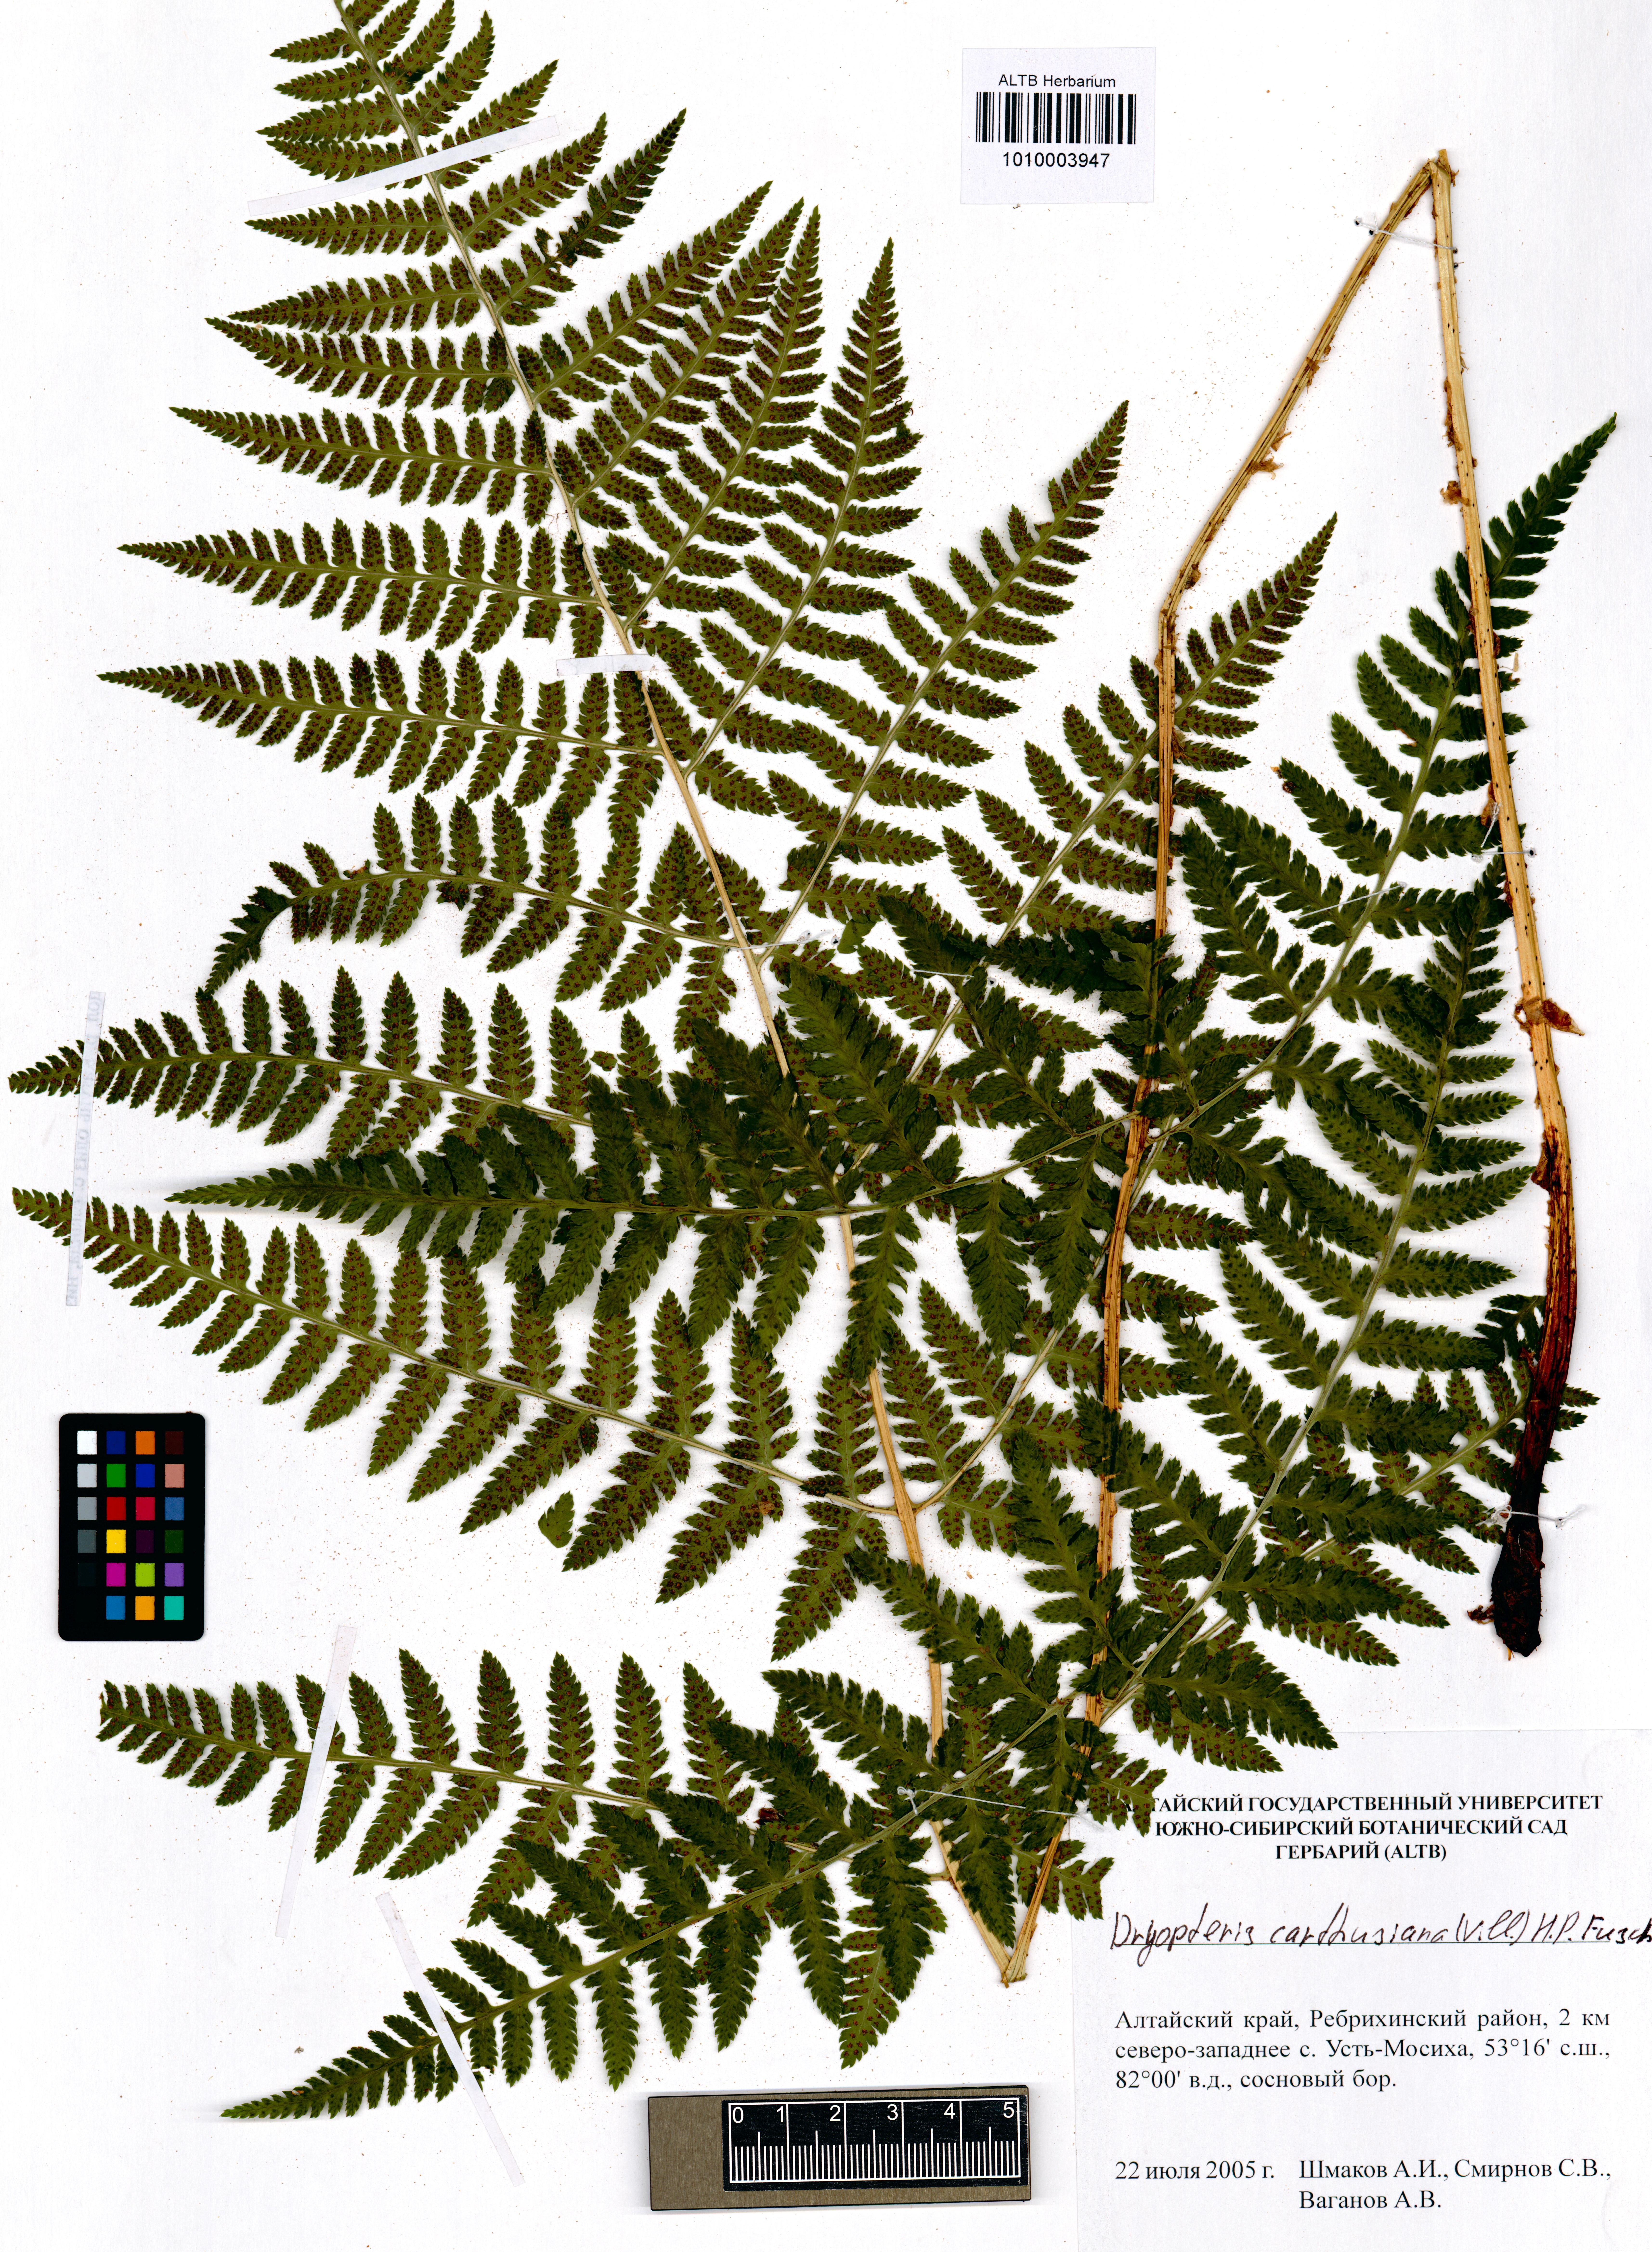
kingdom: Plantae
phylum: Tracheophyta
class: Polypodiopsida
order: Polypodiales
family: Dryopteridaceae
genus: Dryopteris
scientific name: Dryopteris carthusiana
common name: Narrow buckler-fern
